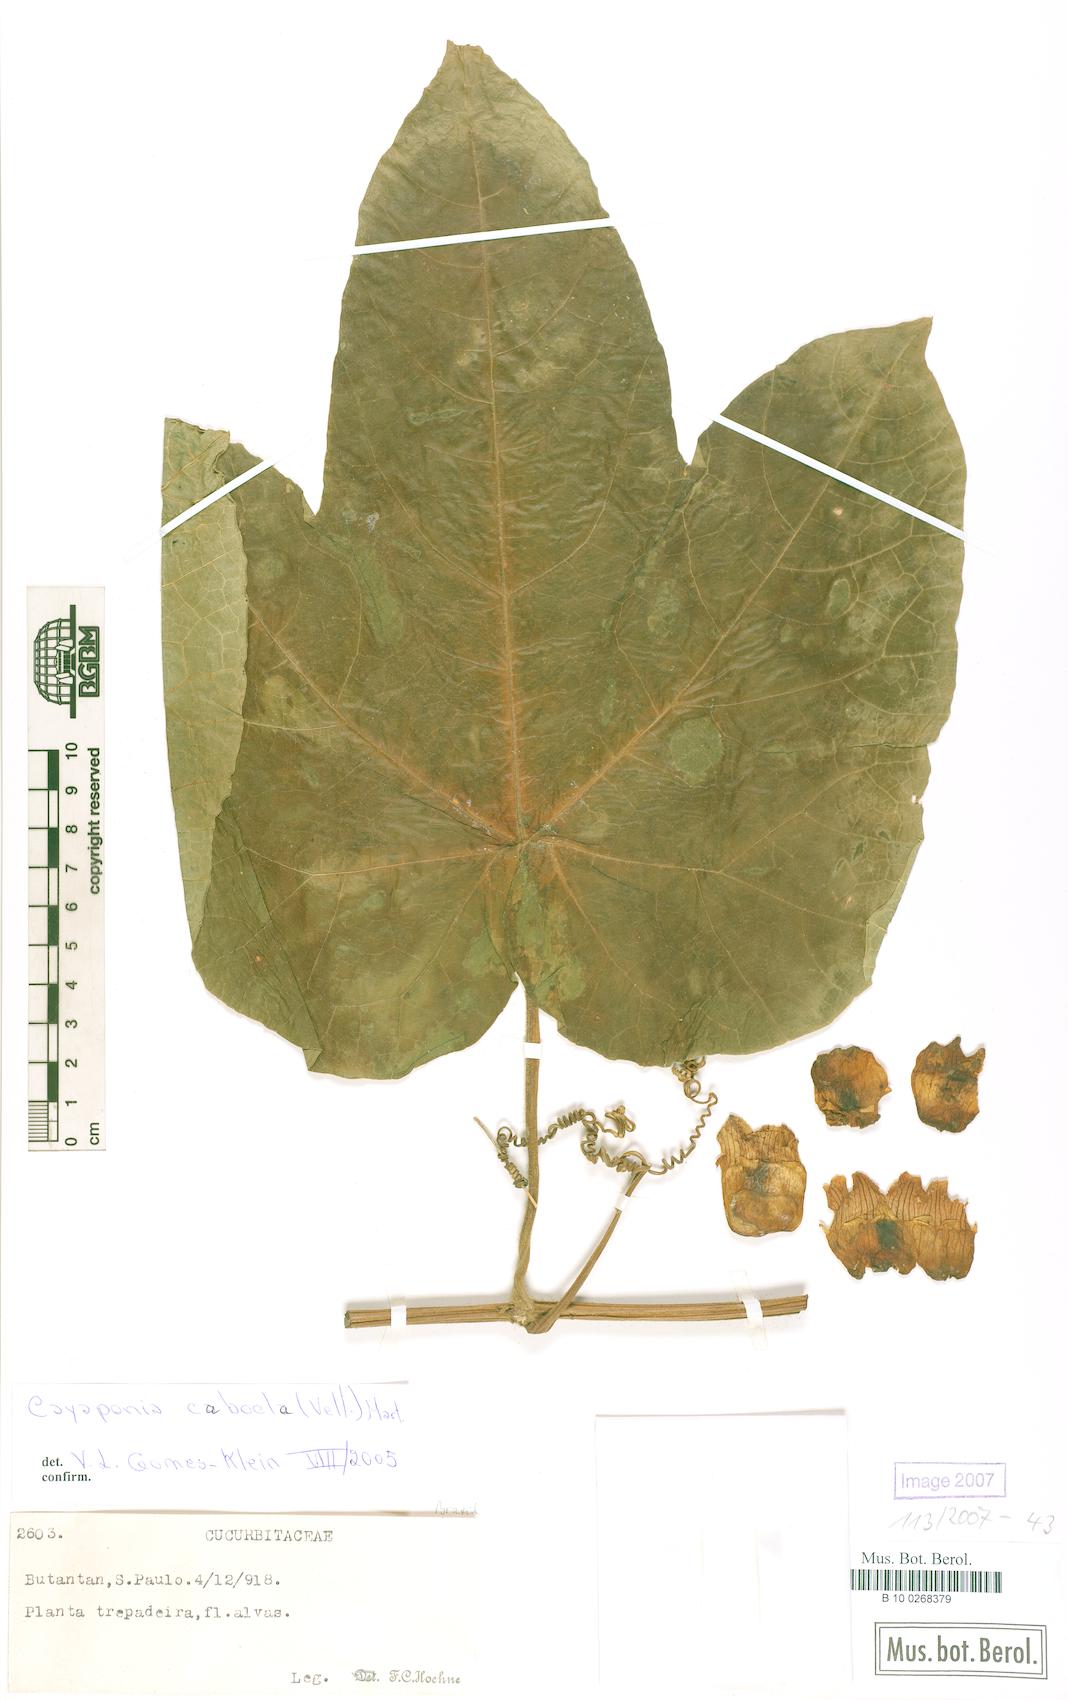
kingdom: Plantae
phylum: Tracheophyta
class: Magnoliopsida
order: Cucurbitales
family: Cucurbitaceae
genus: Cayaponia
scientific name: Cayaponia cabocla
